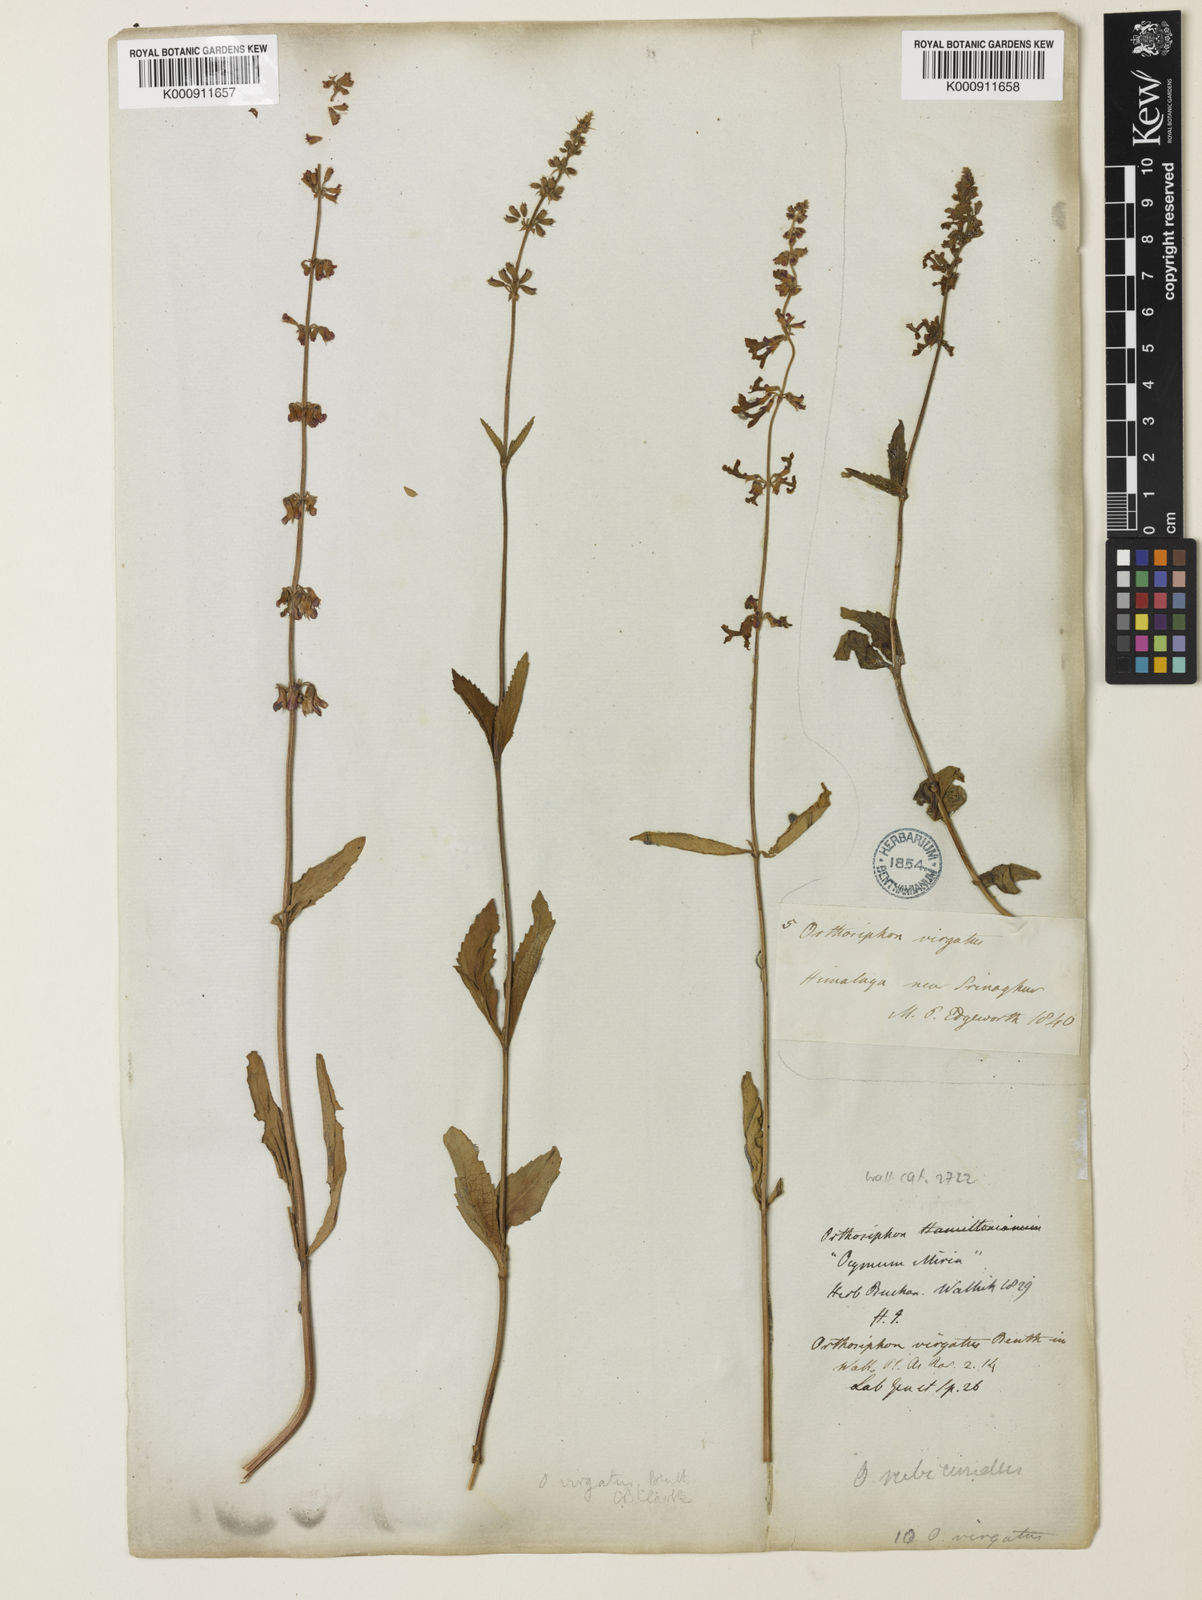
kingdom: Plantae
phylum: Tracheophyta
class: Magnoliopsida
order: Lamiales
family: Lamiaceae
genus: Orthosiphon
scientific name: Orthosiphon rubicundus
